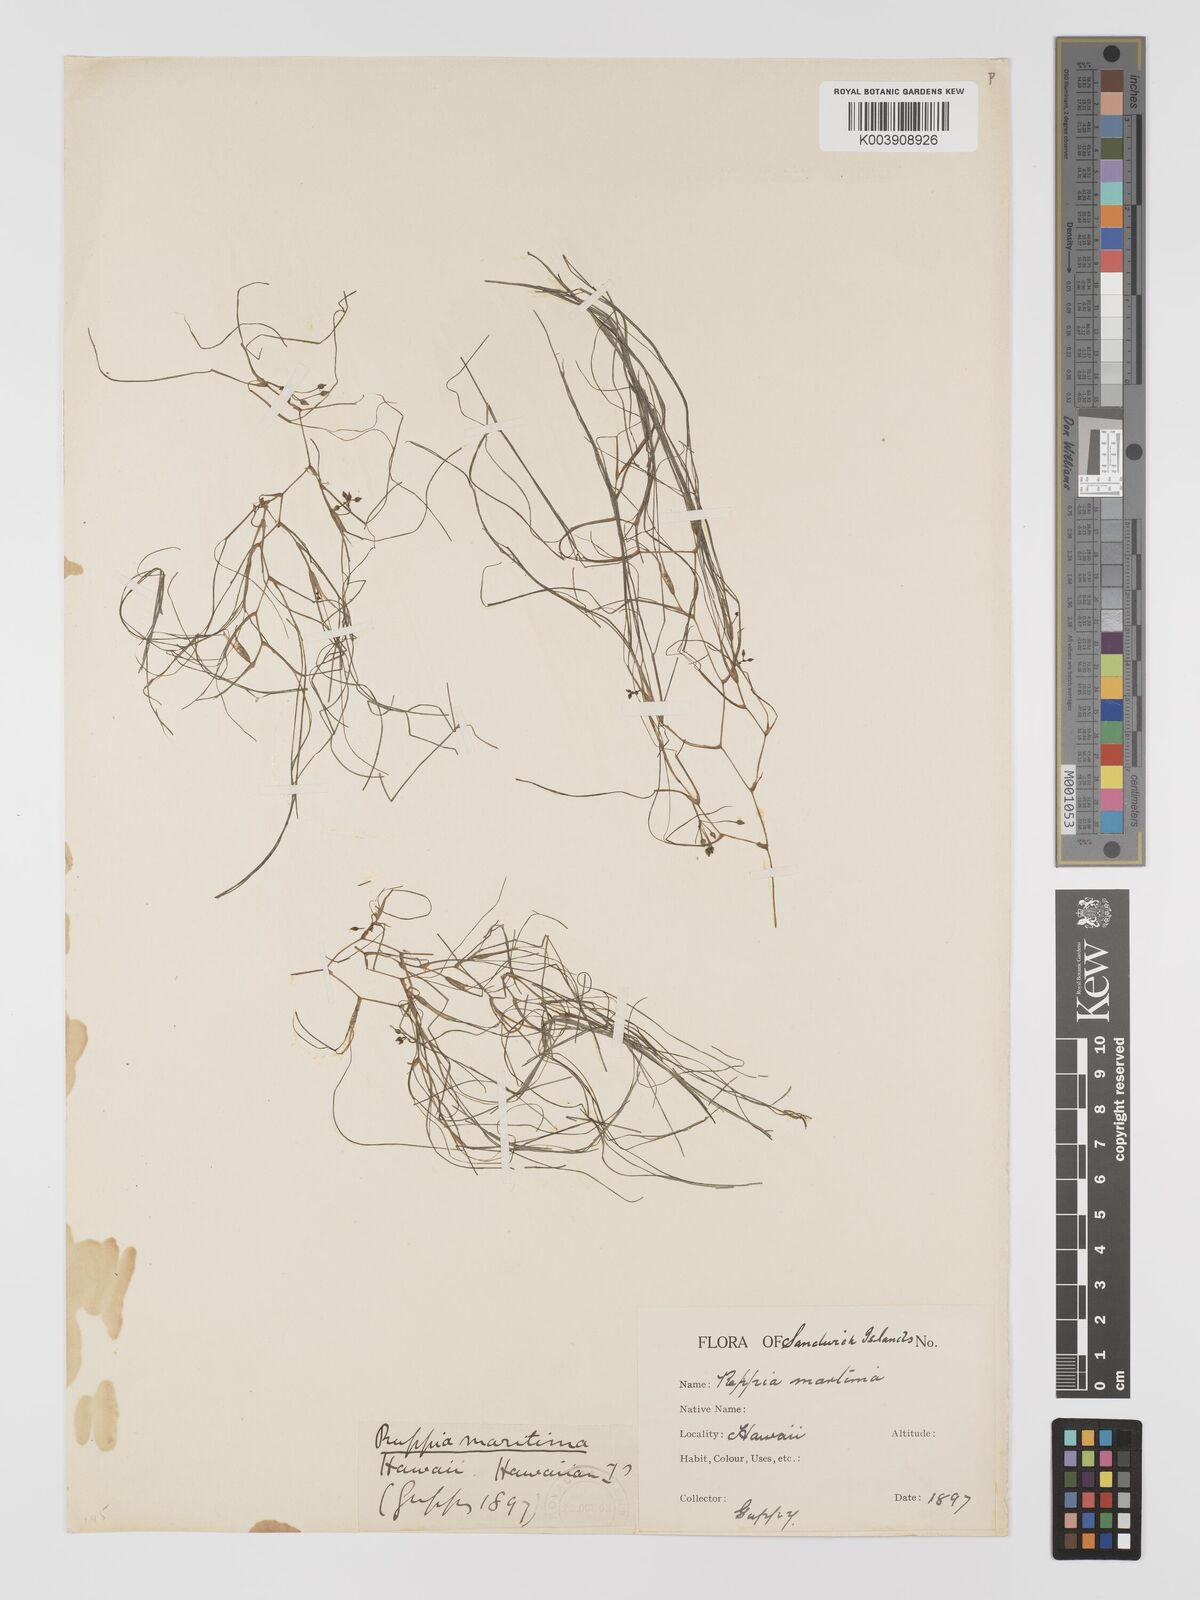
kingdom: Plantae
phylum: Tracheophyta
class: Liliopsida
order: Alismatales
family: Ruppiaceae
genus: Ruppia
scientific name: Ruppia maritima
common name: Beaked tasselweed
